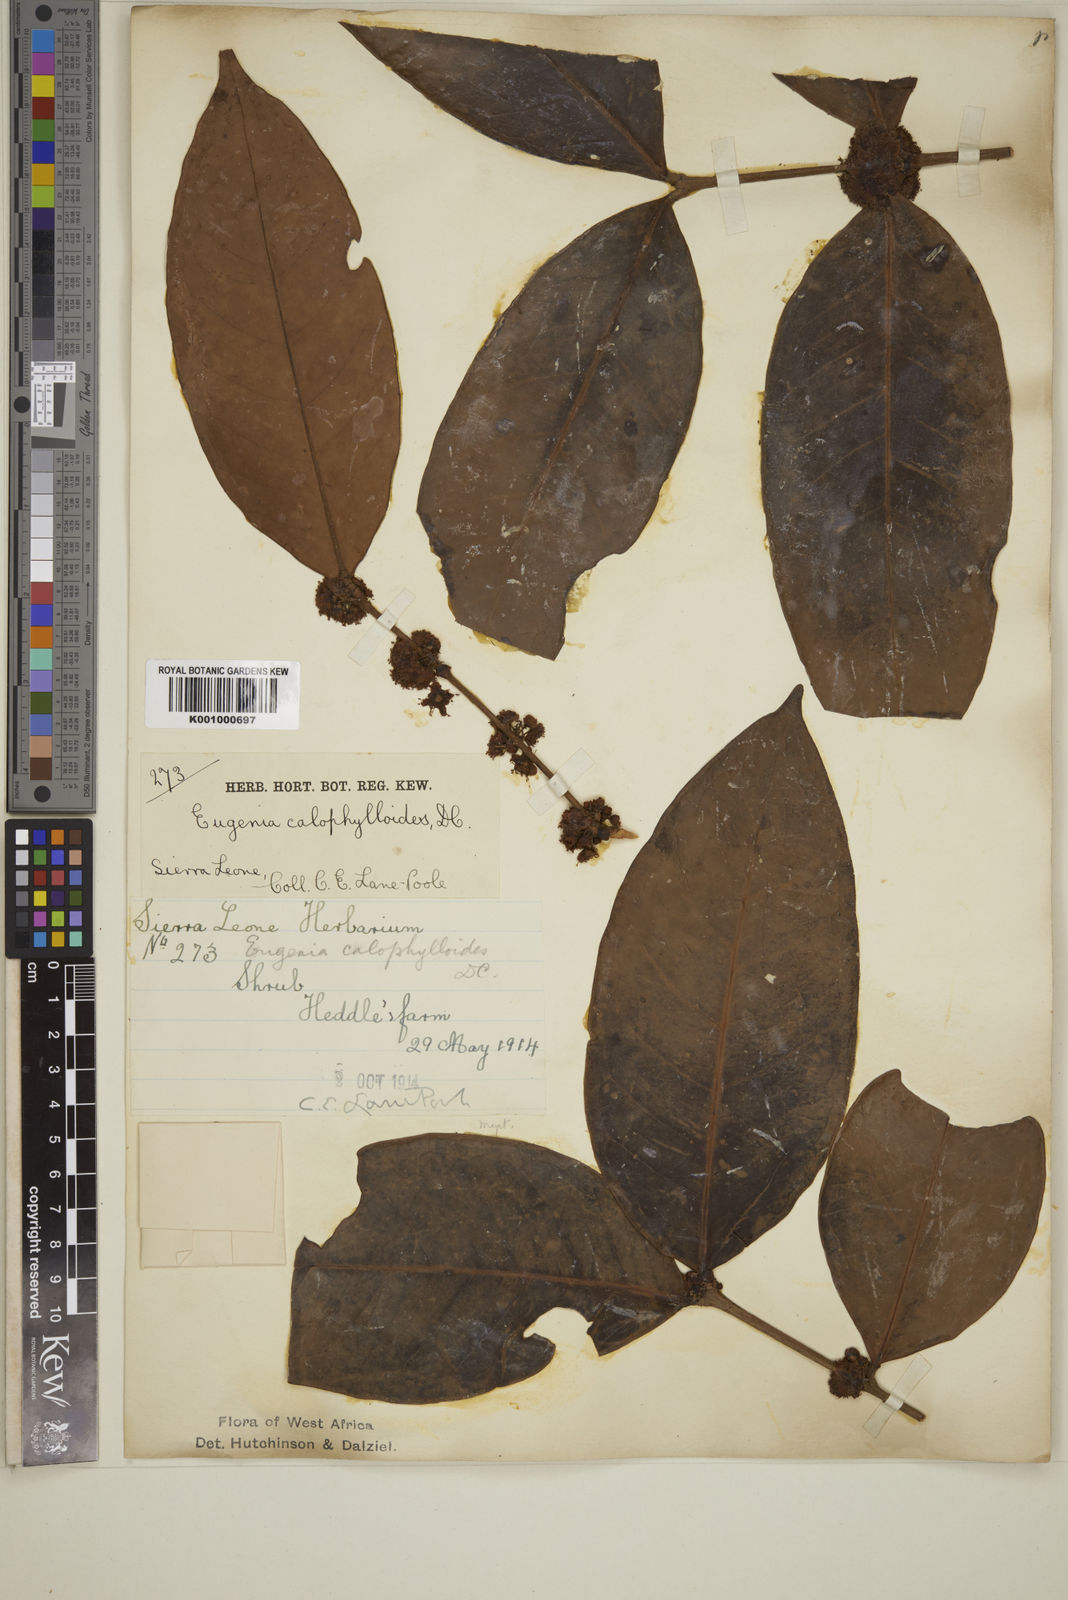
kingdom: Plantae
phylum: Tracheophyta
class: Magnoliopsida
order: Myrtales
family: Myrtaceae
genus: Eugenia
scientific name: Eugenia calophylloides
